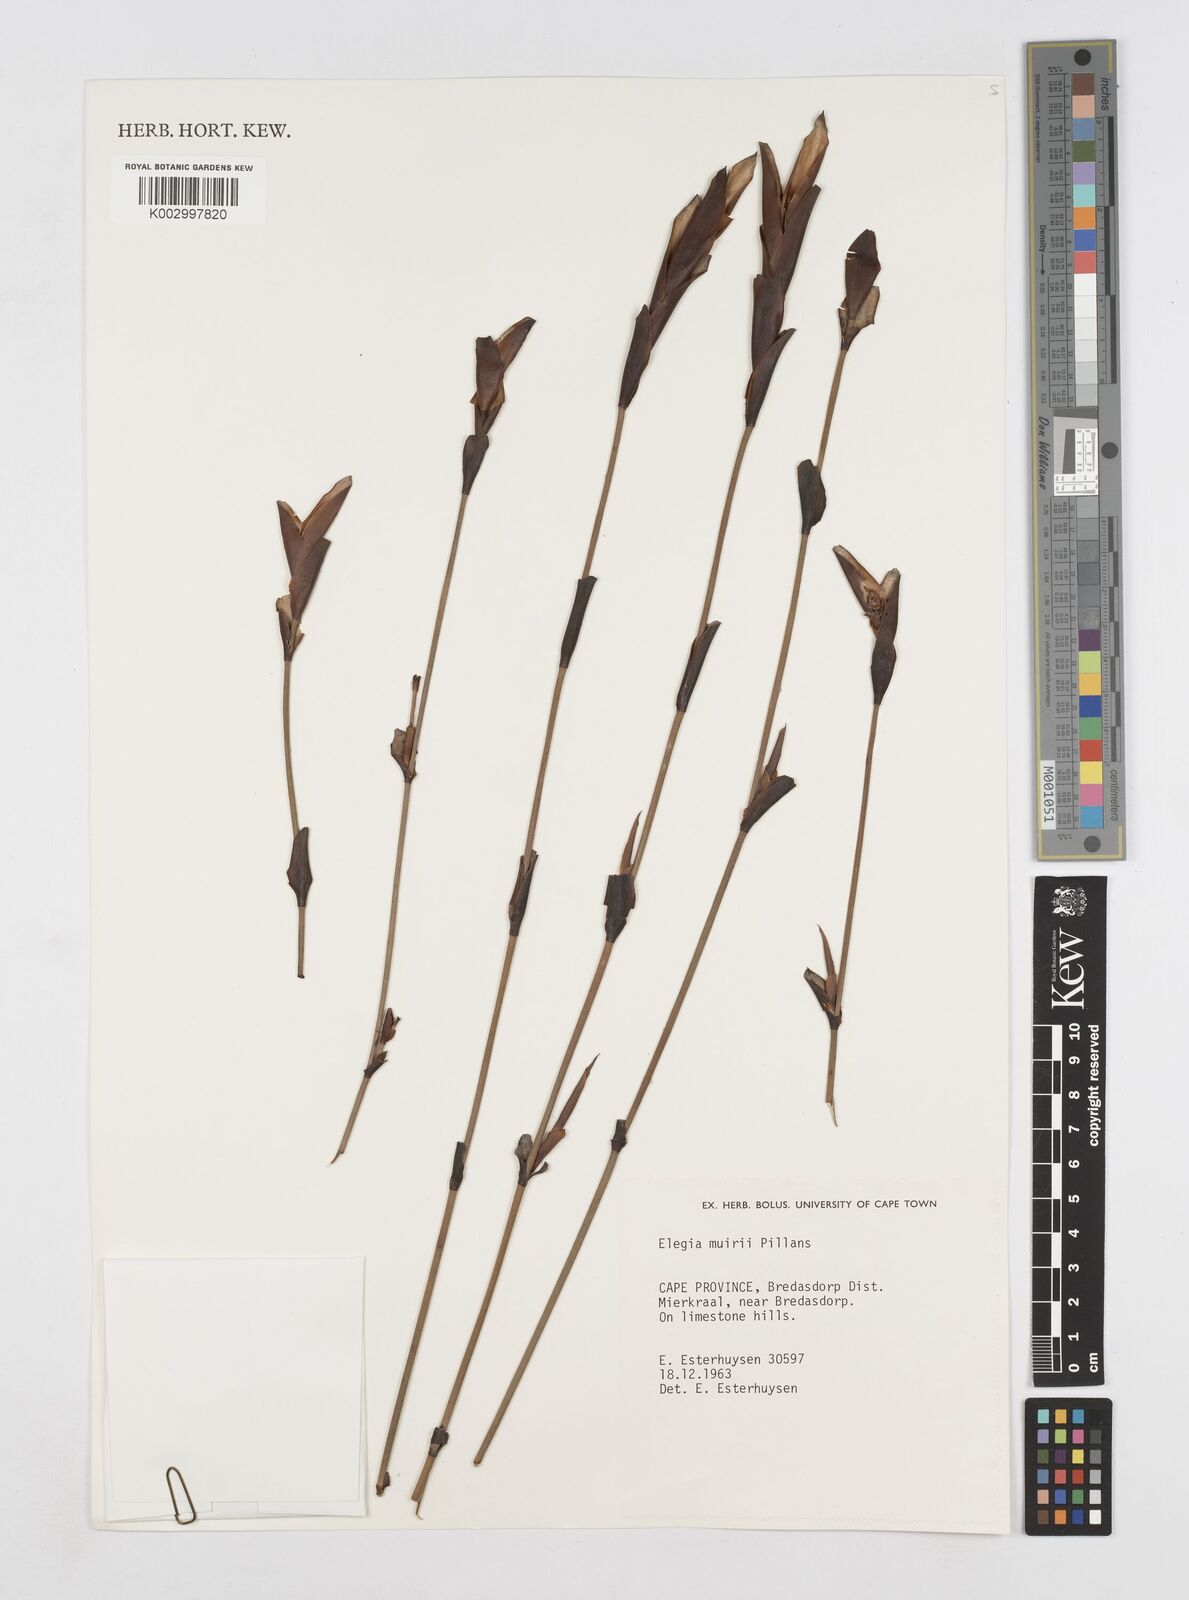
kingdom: Plantae
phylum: Tracheophyta
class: Liliopsida
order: Poales
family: Restionaceae
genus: Elegia
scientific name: Elegia muirii
